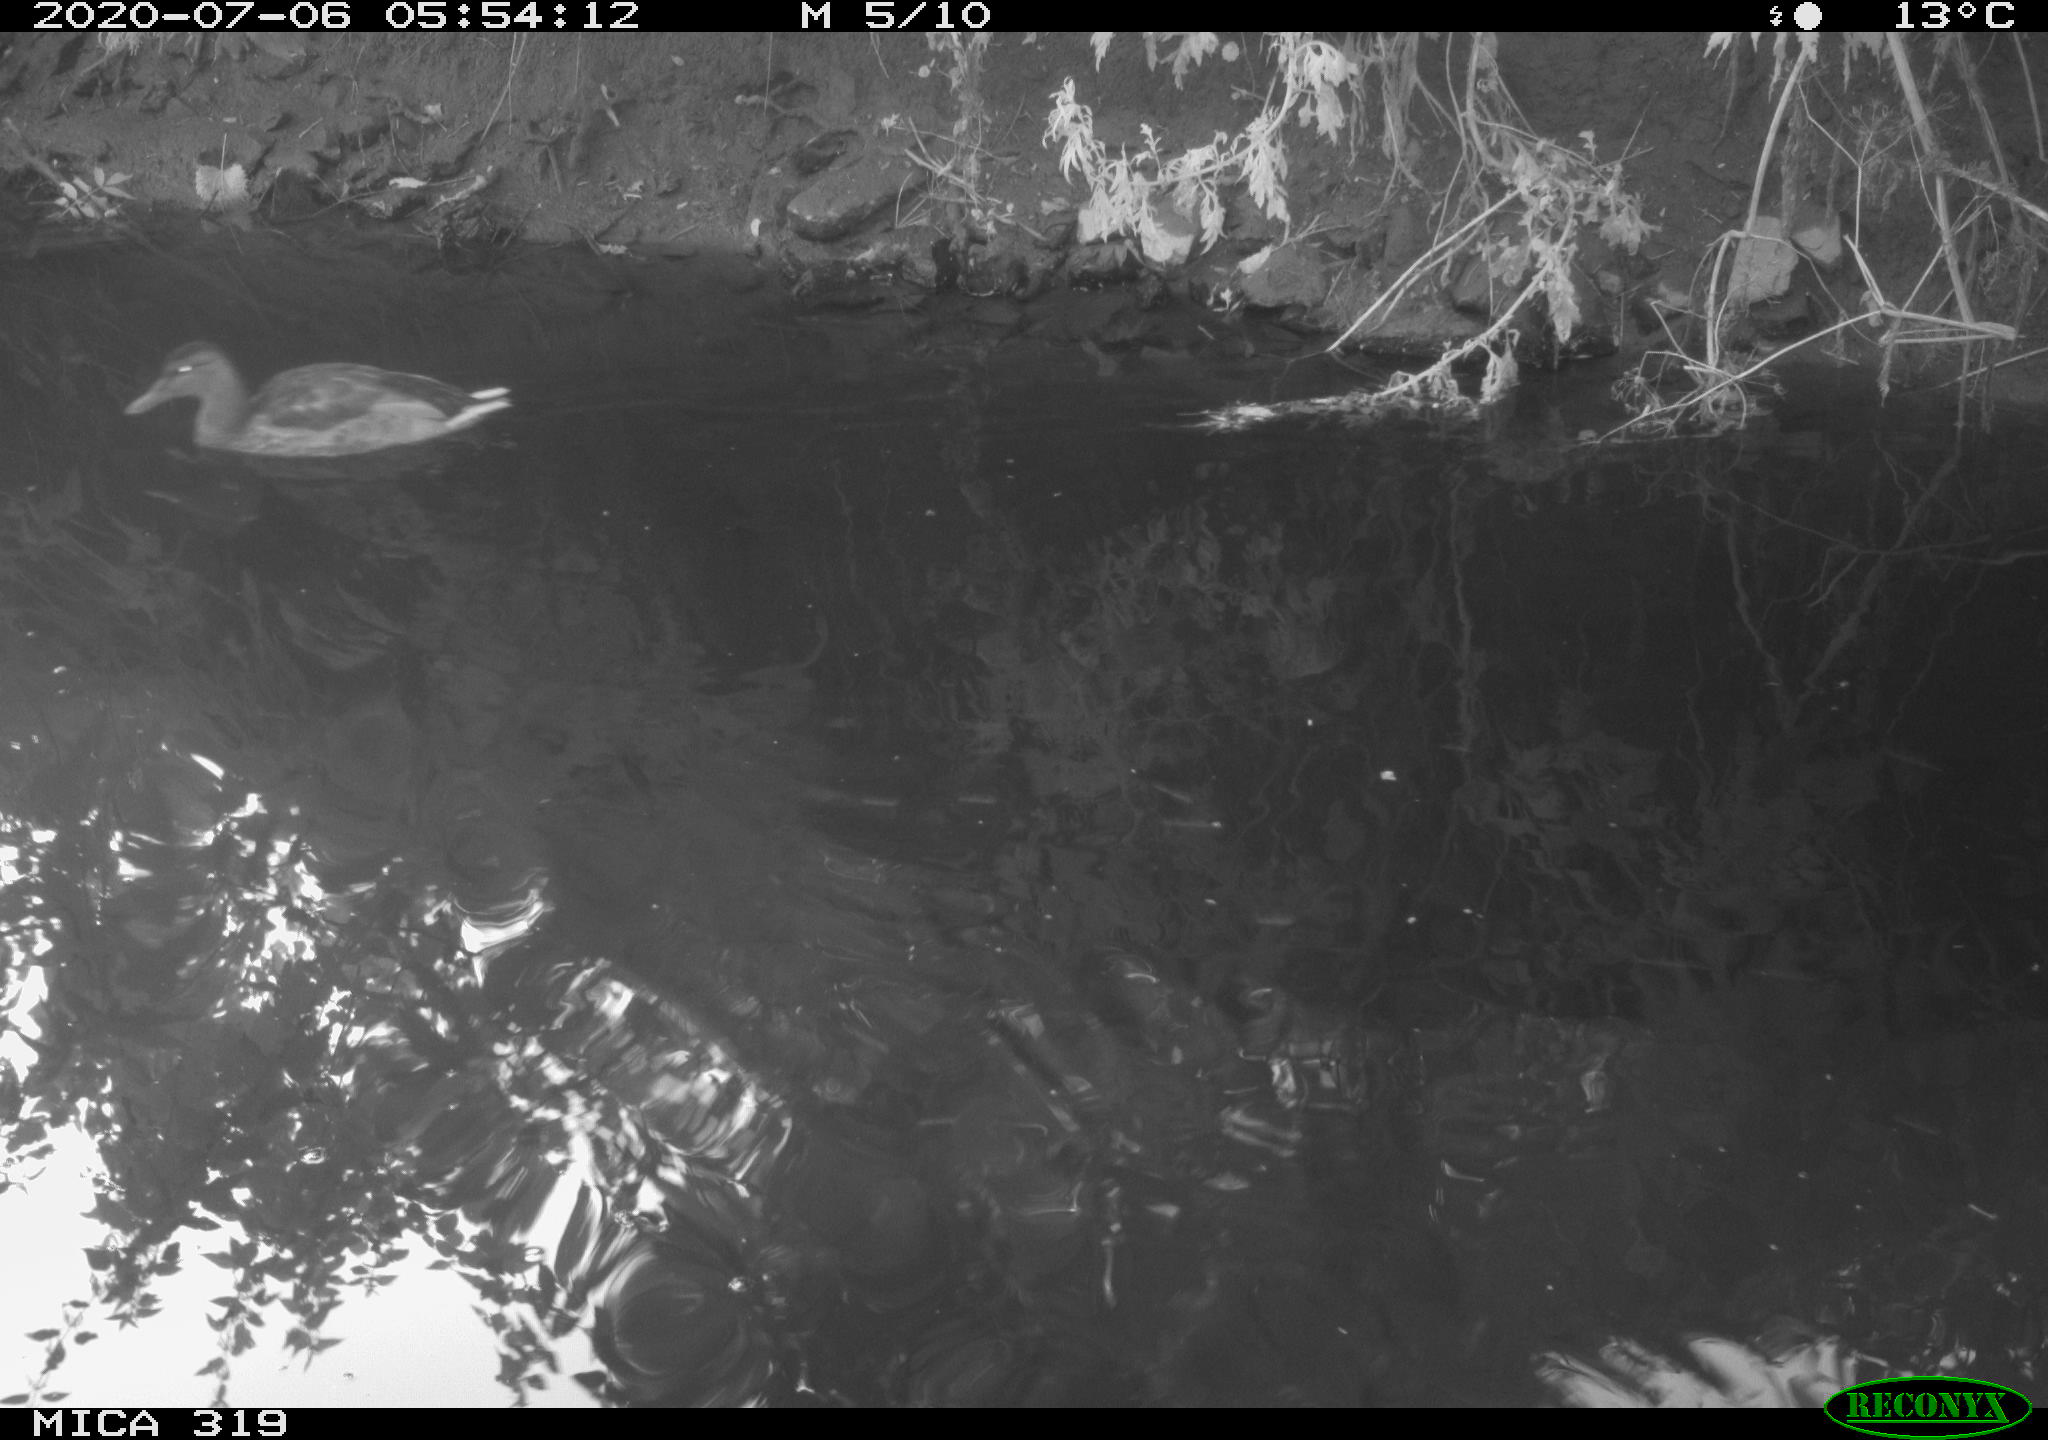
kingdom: Animalia
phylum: Chordata
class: Aves
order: Anseriformes
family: Anatidae
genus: Anas
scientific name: Anas platyrhynchos
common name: Mallard
